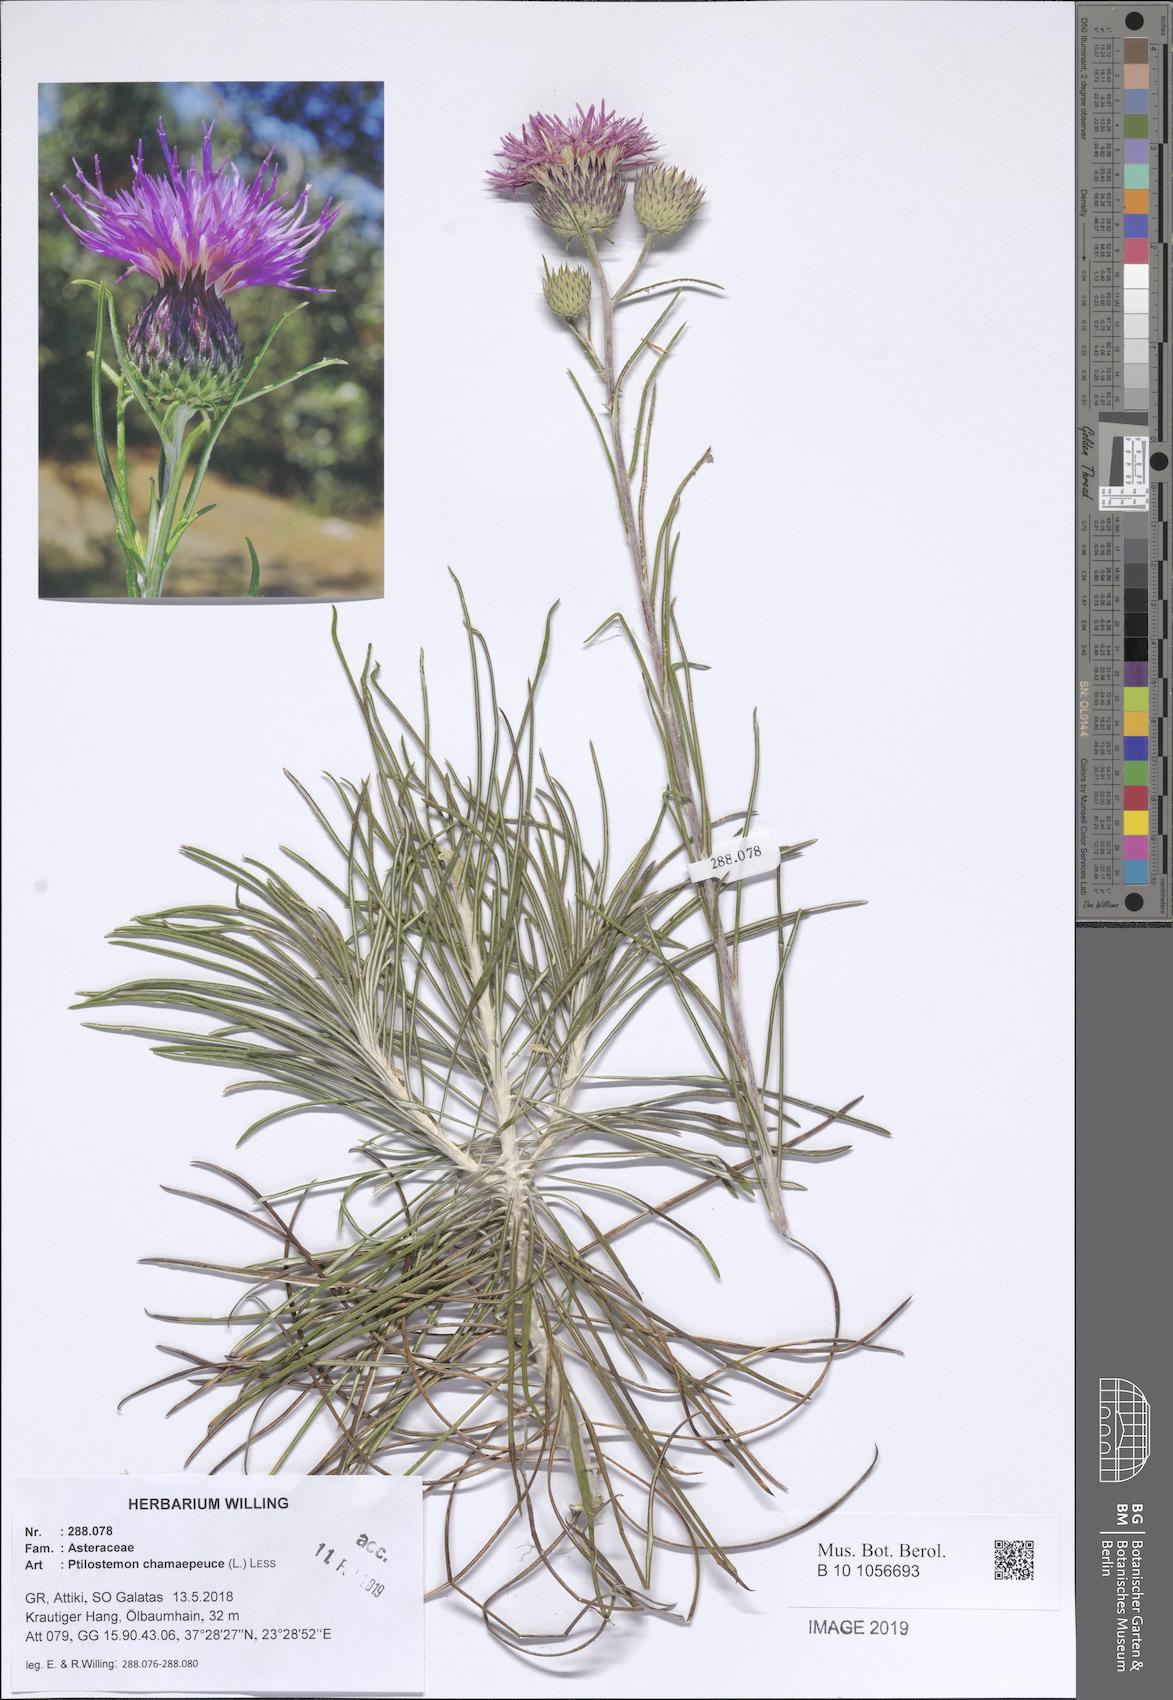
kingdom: Plantae
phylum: Tracheophyta
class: Magnoliopsida
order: Asterales
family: Asteraceae
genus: Ptilostemon
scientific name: Ptilostemon chamaepeuce
